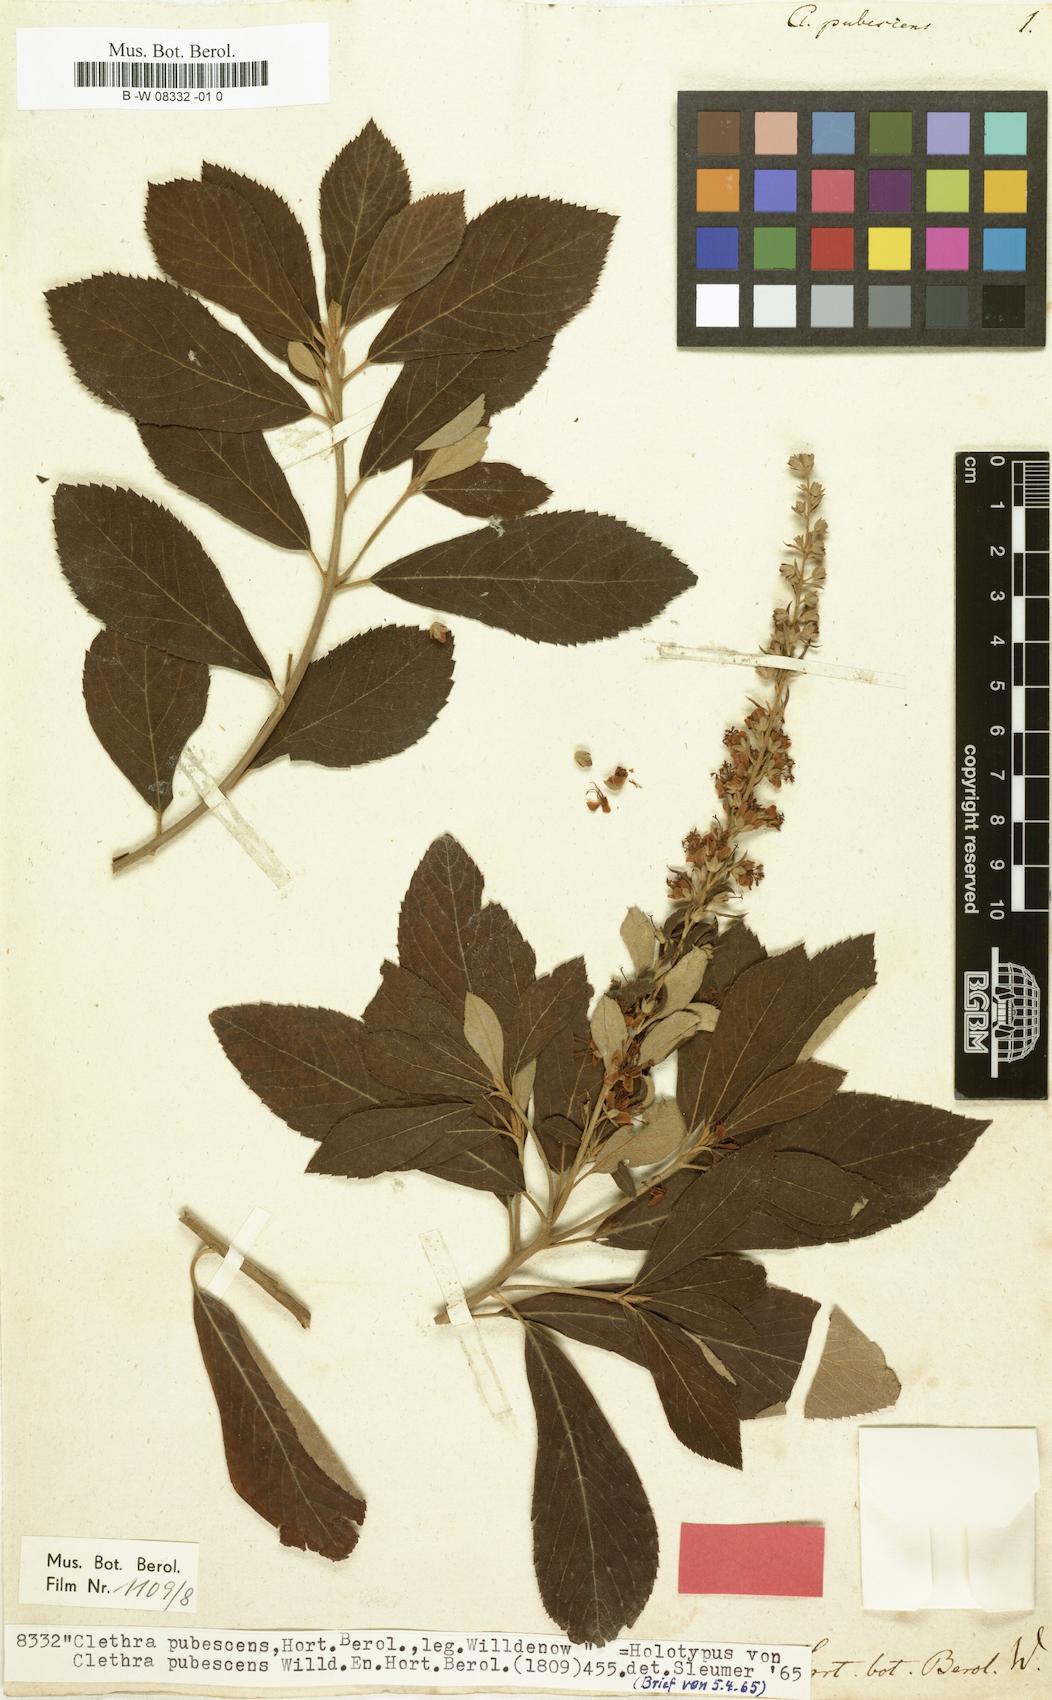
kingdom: Plantae
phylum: Tracheophyta
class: Magnoliopsida
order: Ericales
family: Clethraceae
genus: Clethra
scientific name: Clethra alnifolia
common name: Sweet pepperbush
